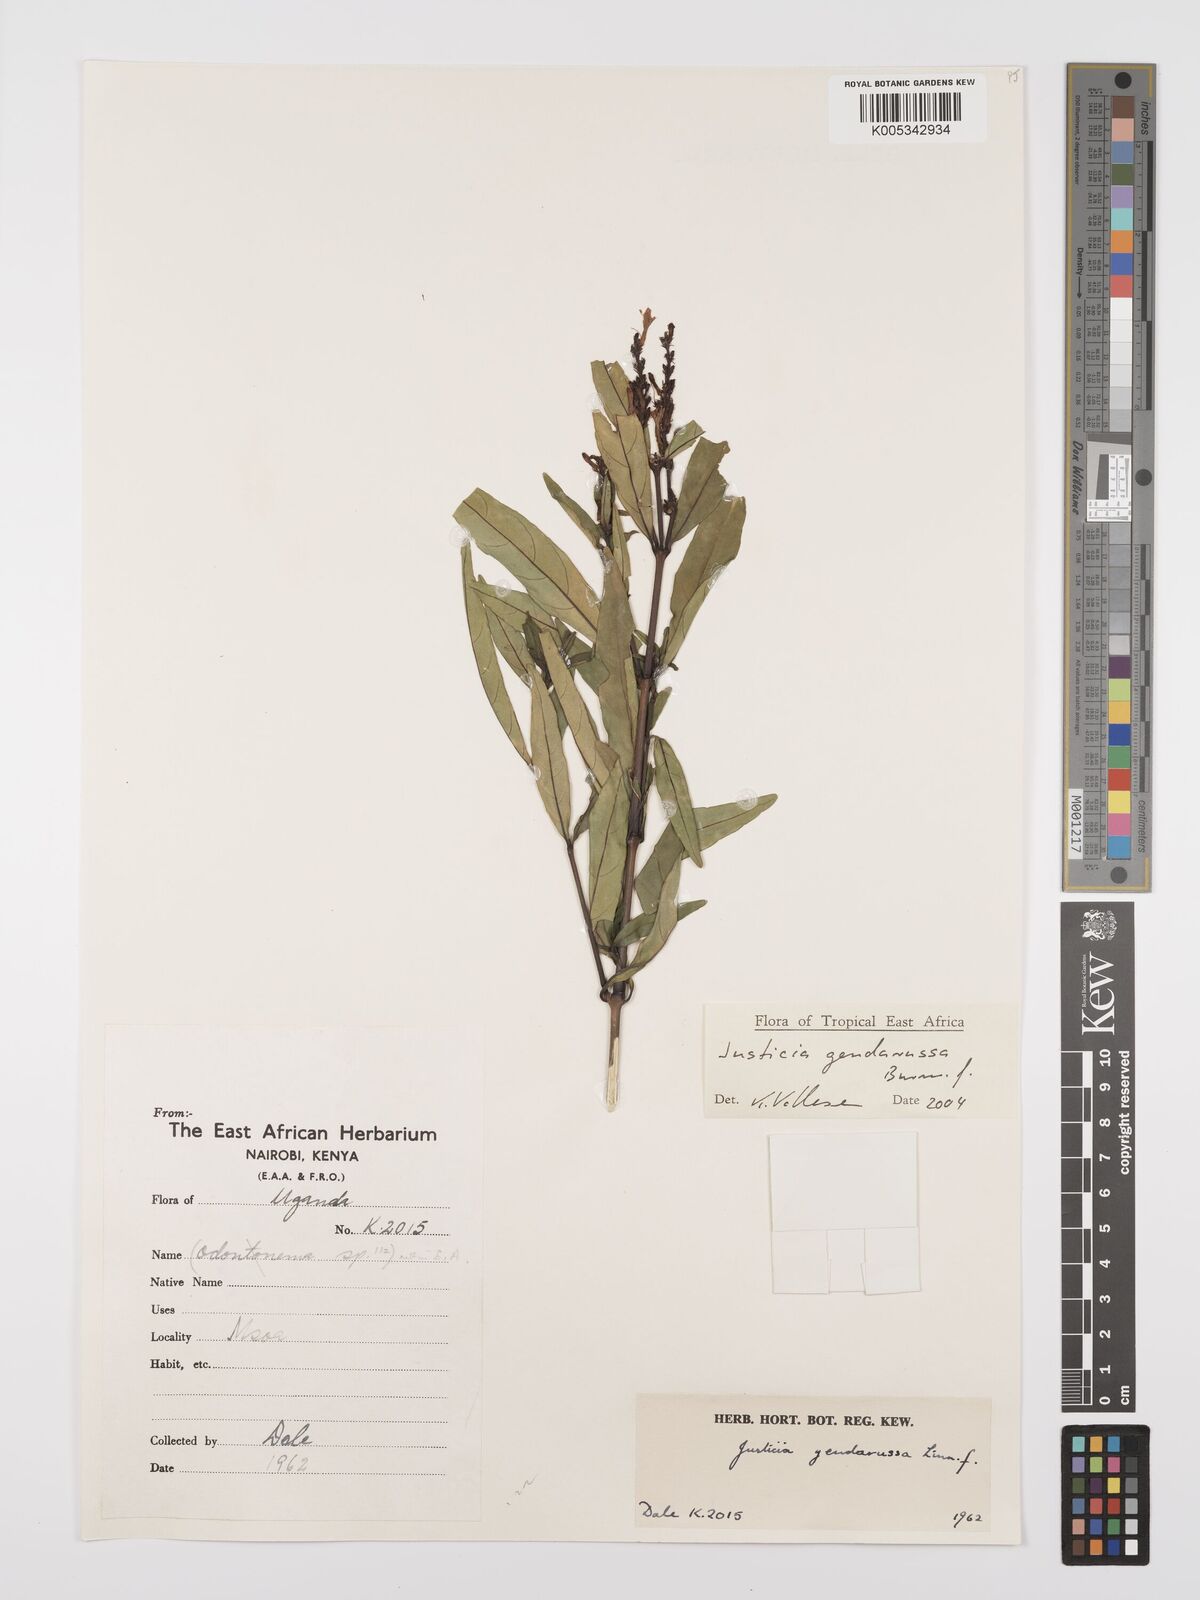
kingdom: Plantae
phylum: Tracheophyta
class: Magnoliopsida
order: Lamiales
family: Acanthaceae
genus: Justicia
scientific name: Justicia
